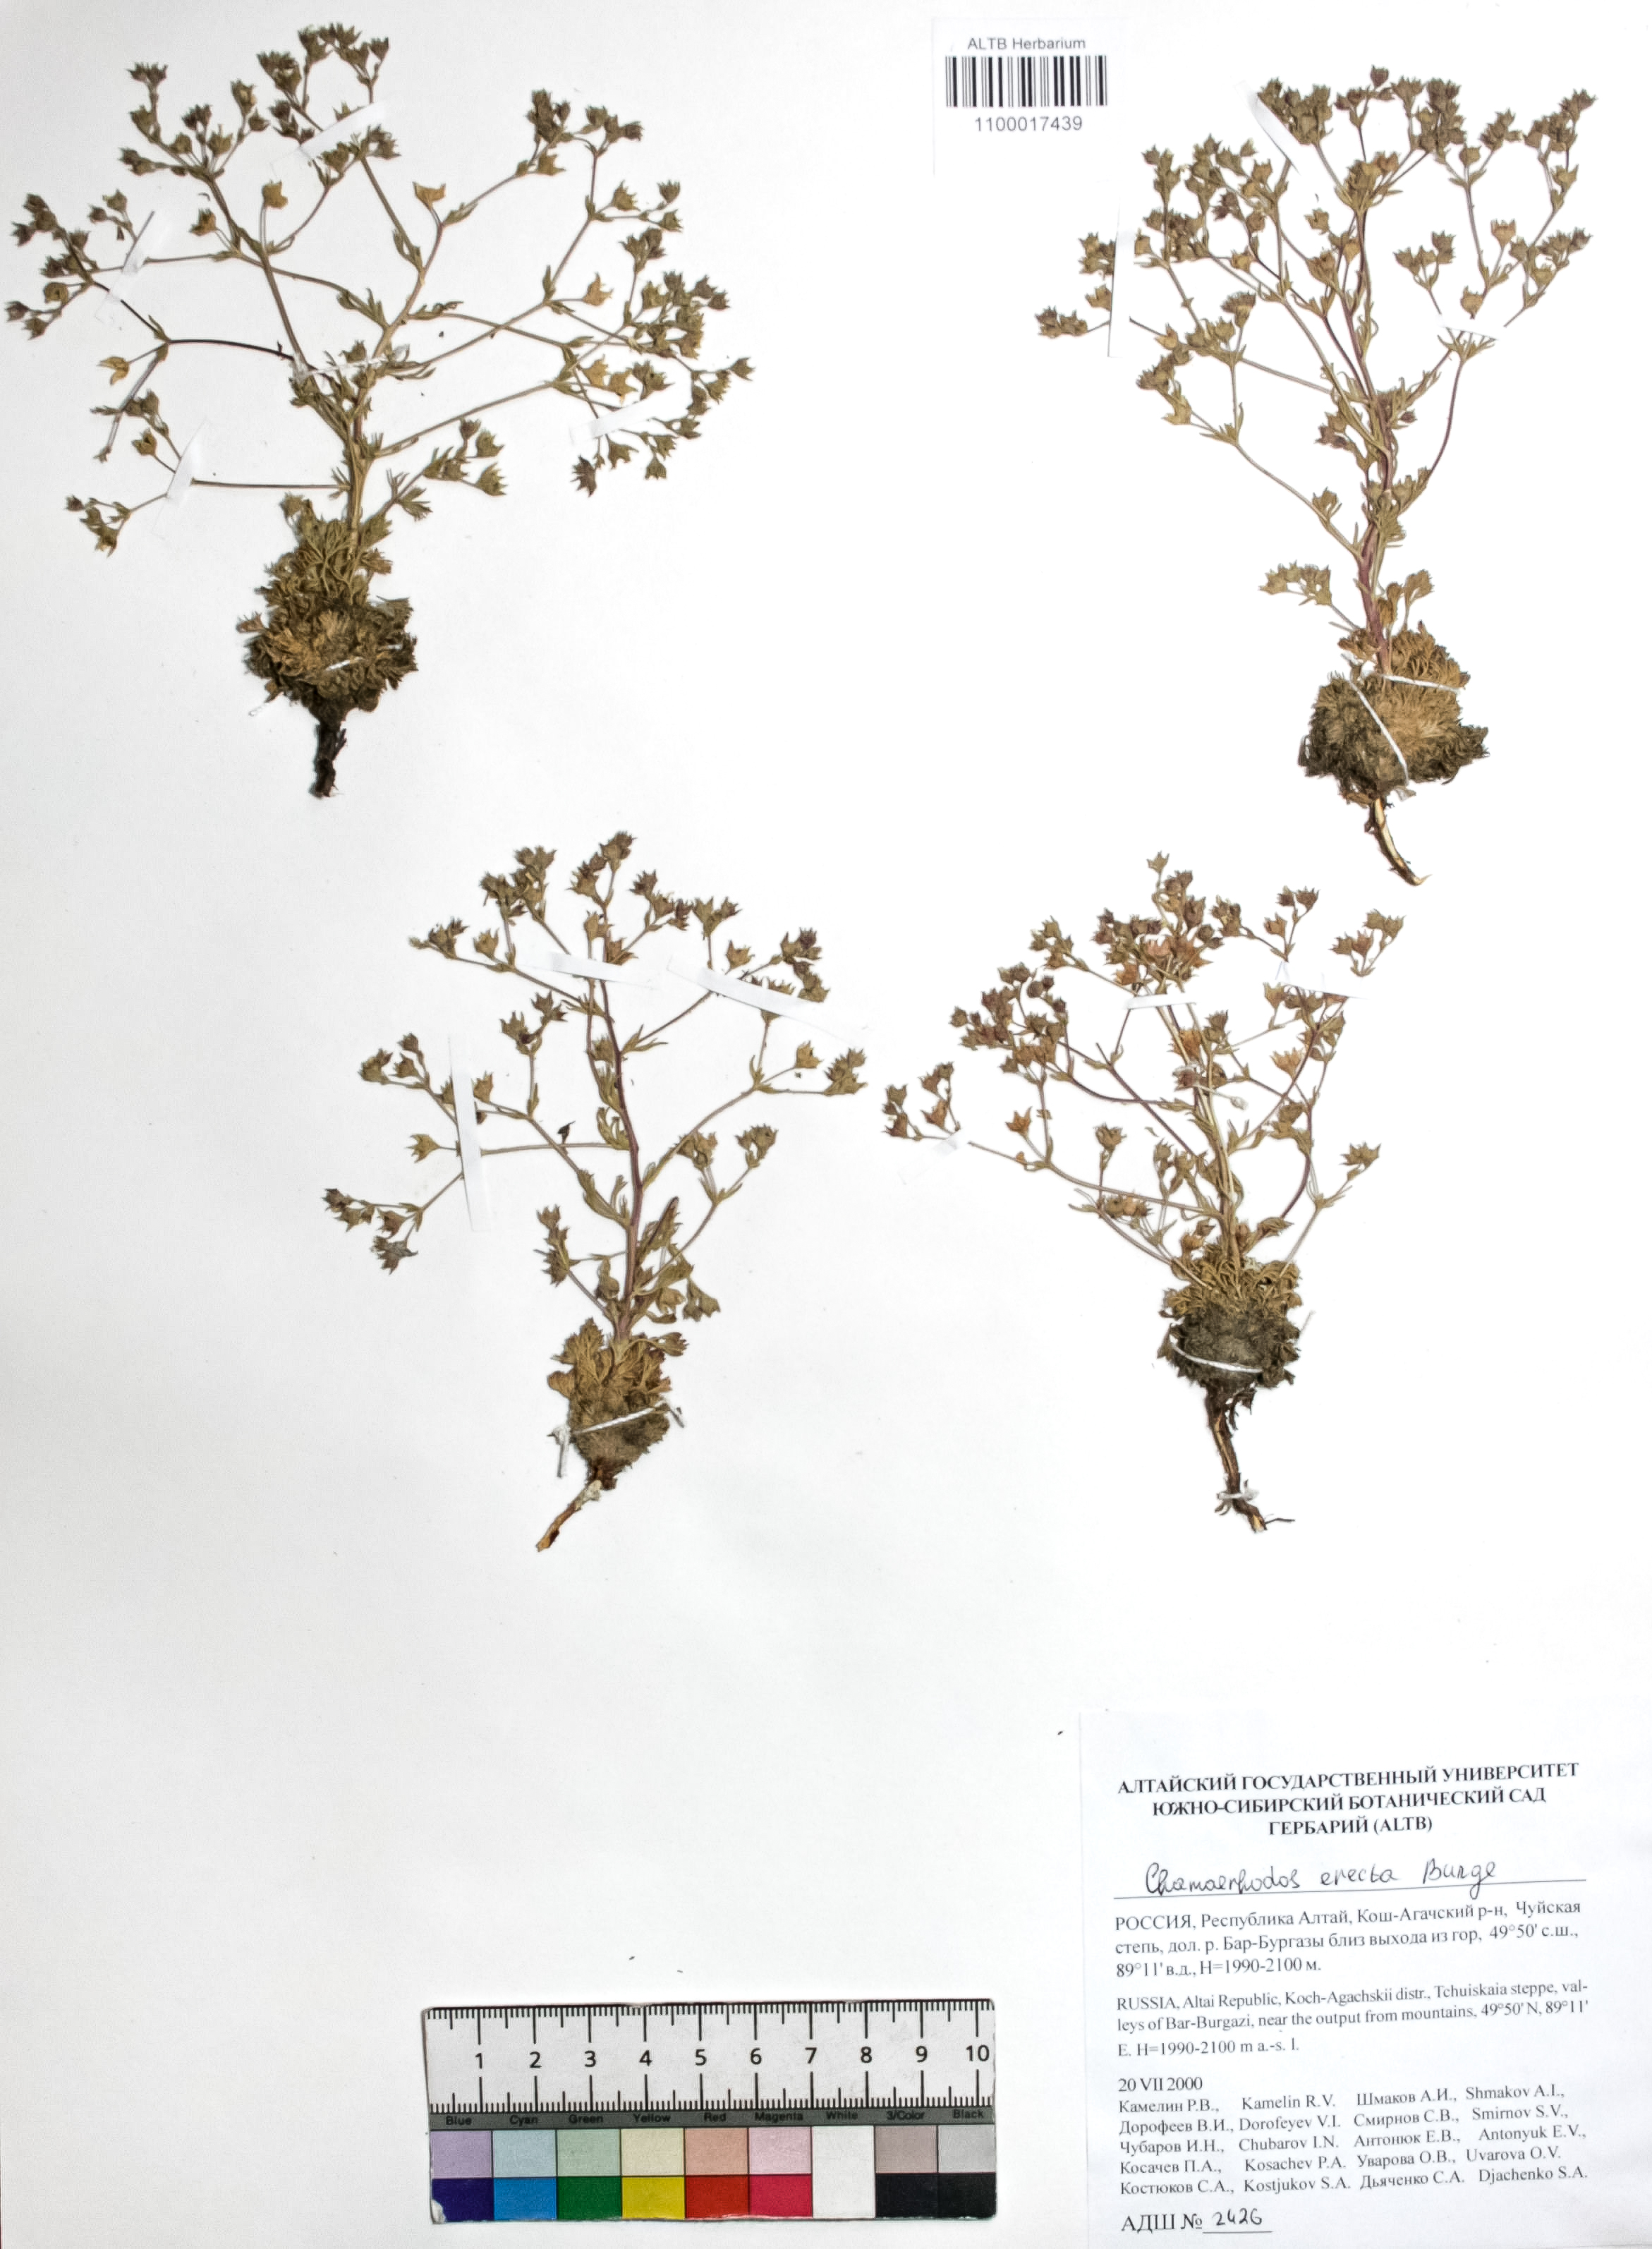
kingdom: Plantae
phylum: Tracheophyta
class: Magnoliopsida
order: Rosales
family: Rosaceae
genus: Chamaerhodos
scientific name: Chamaerhodos erecta
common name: American chamaerhodos
